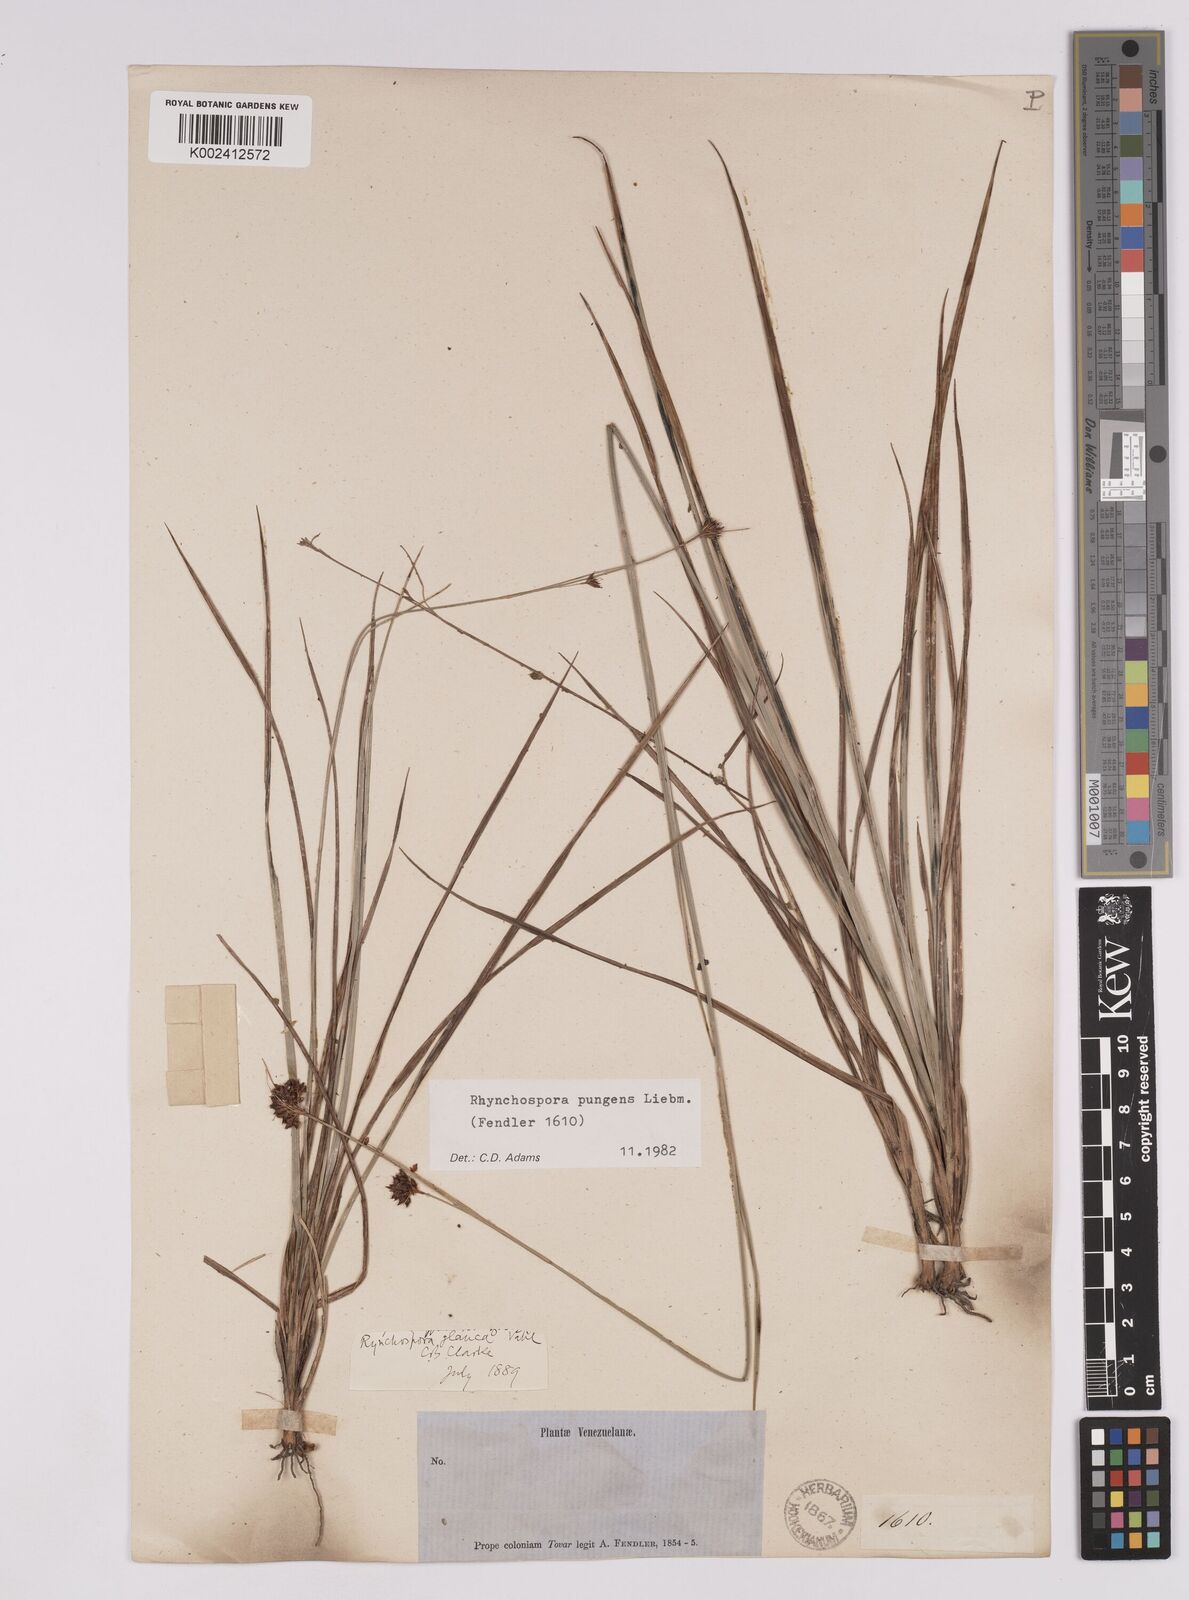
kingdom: Plantae
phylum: Tracheophyta
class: Liliopsida
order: Poales
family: Cyperaceae
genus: Rhynchospora
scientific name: Rhynchospora rugosa
